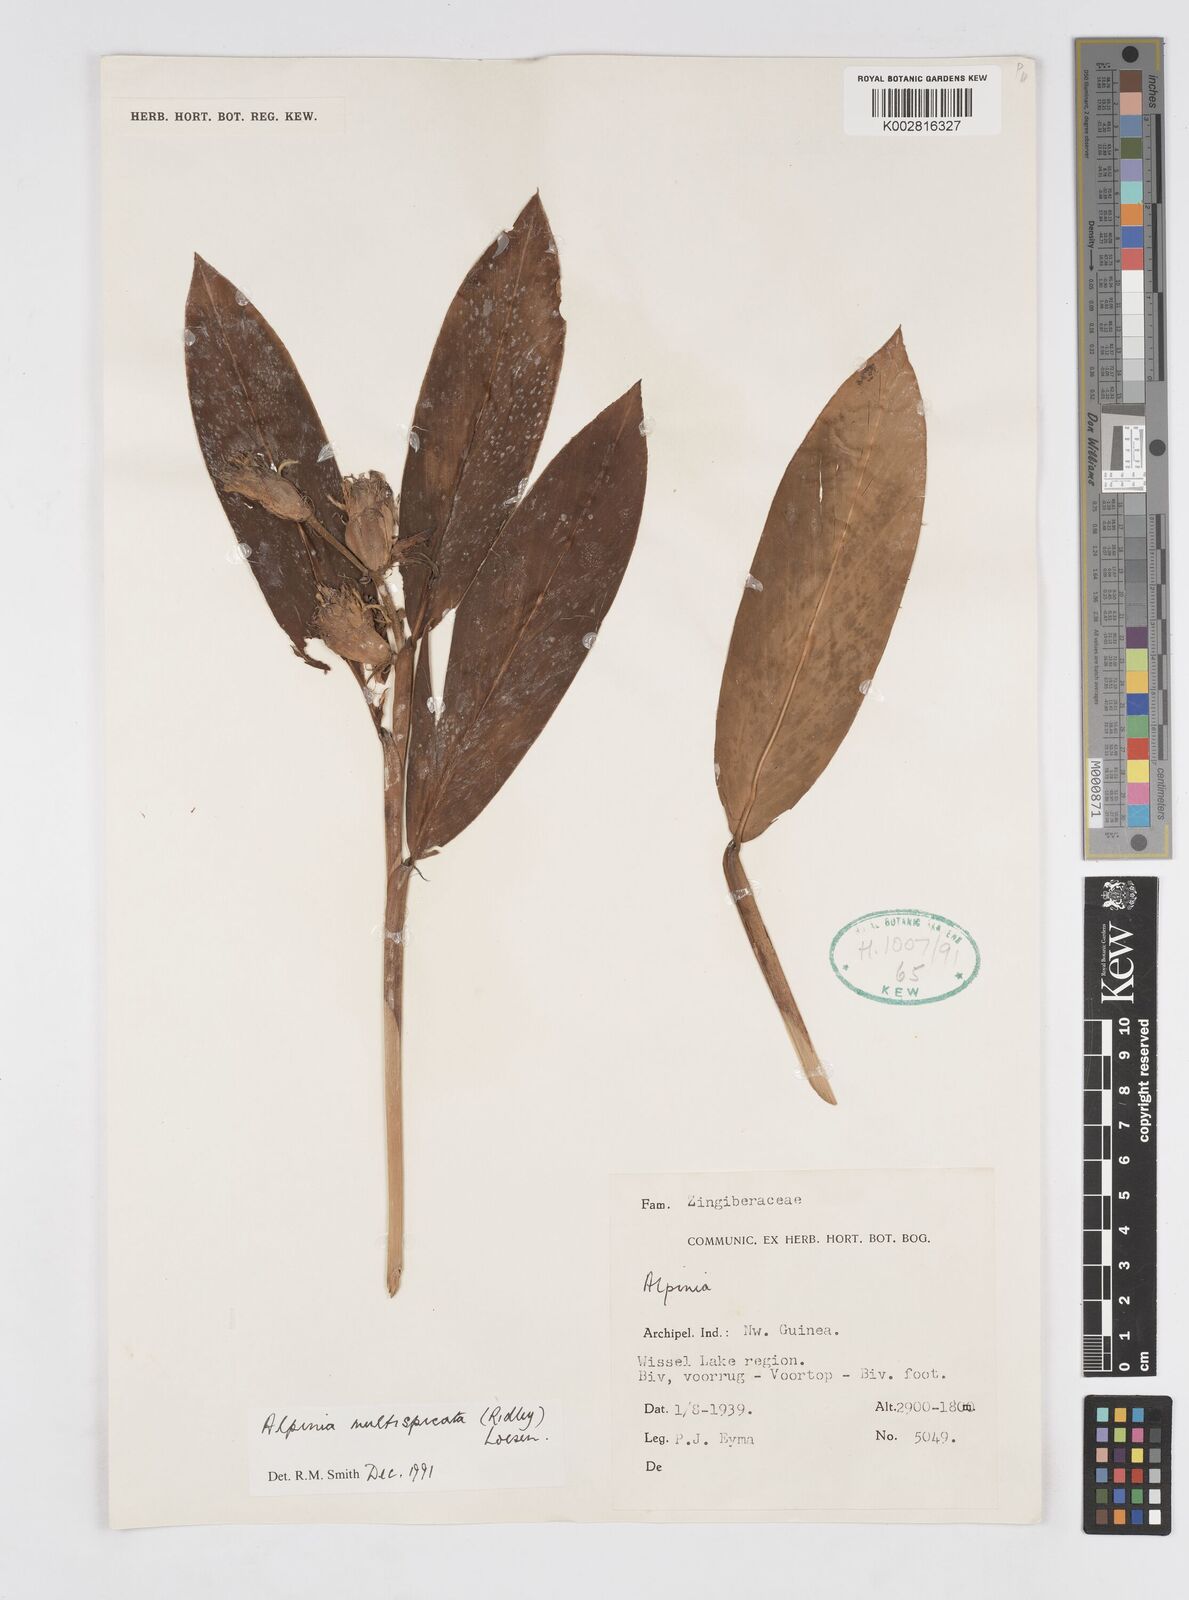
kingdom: Plantae
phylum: Tracheophyta
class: Liliopsida
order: Zingiberales
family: Zingiberaceae
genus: Alpinia
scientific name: Alpinia multispica
